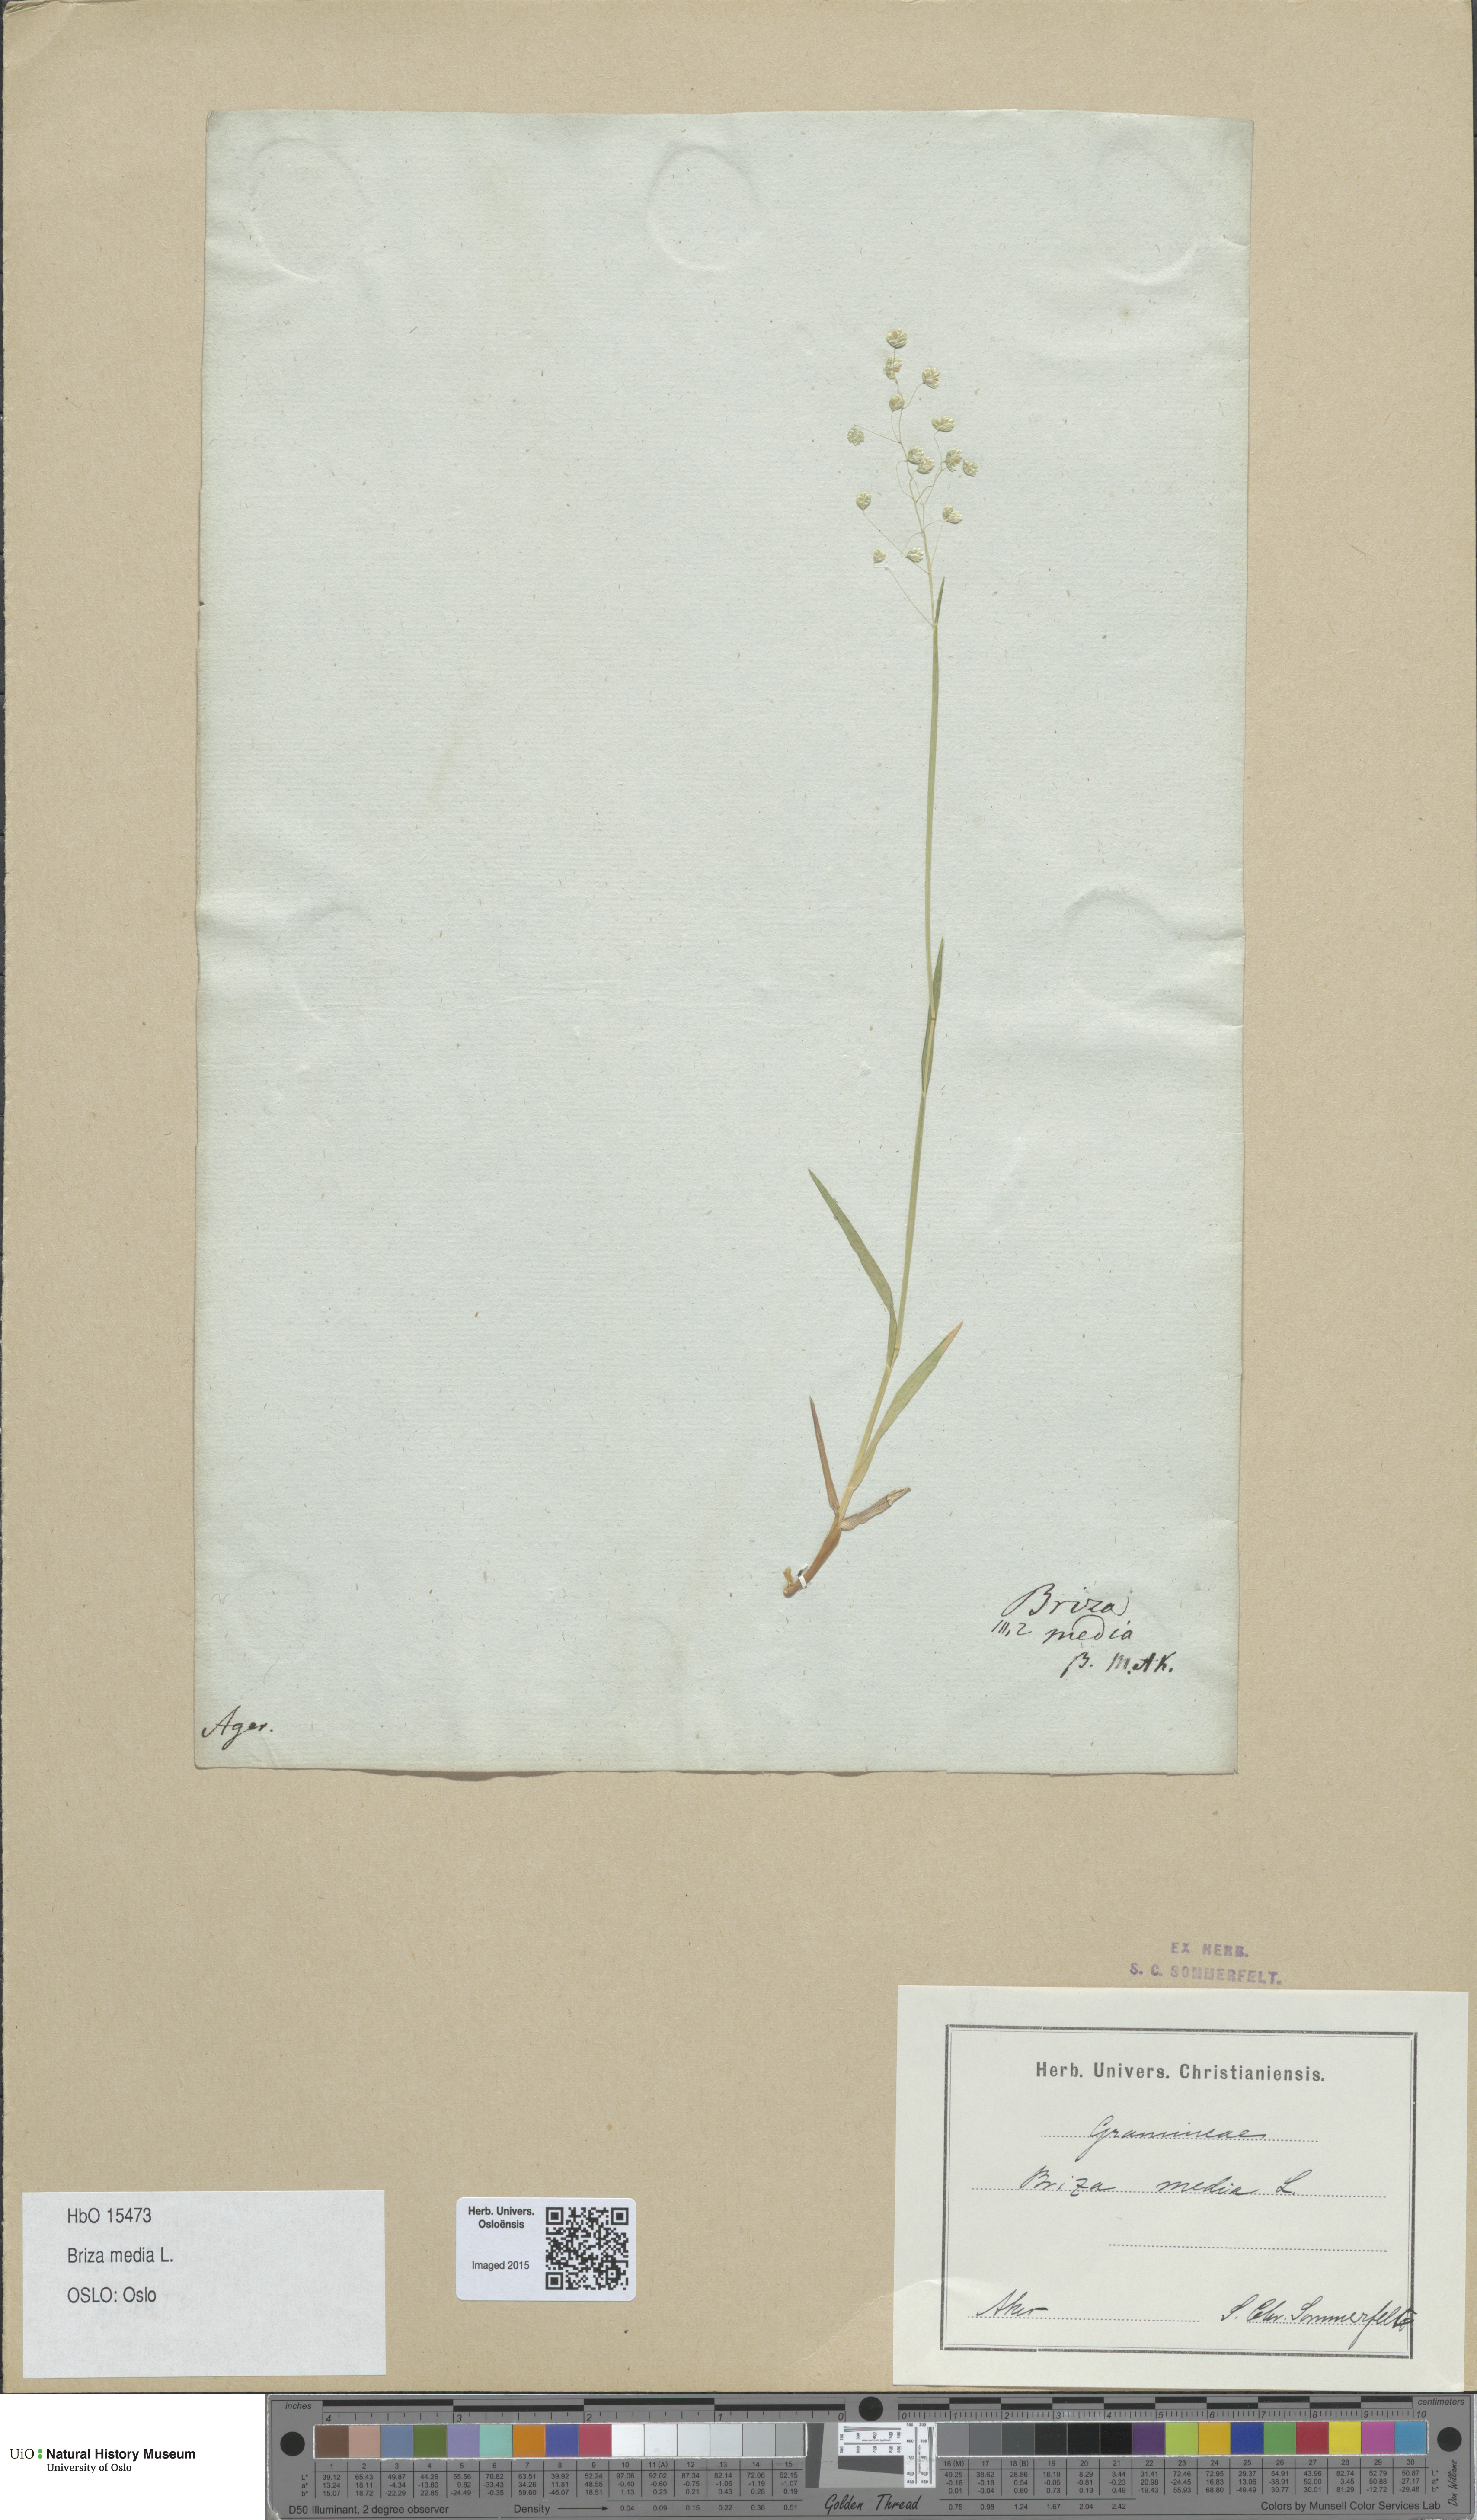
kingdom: Plantae
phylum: Tracheophyta
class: Liliopsida
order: Poales
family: Poaceae
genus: Briza
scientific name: Briza media
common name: Quaking grass
